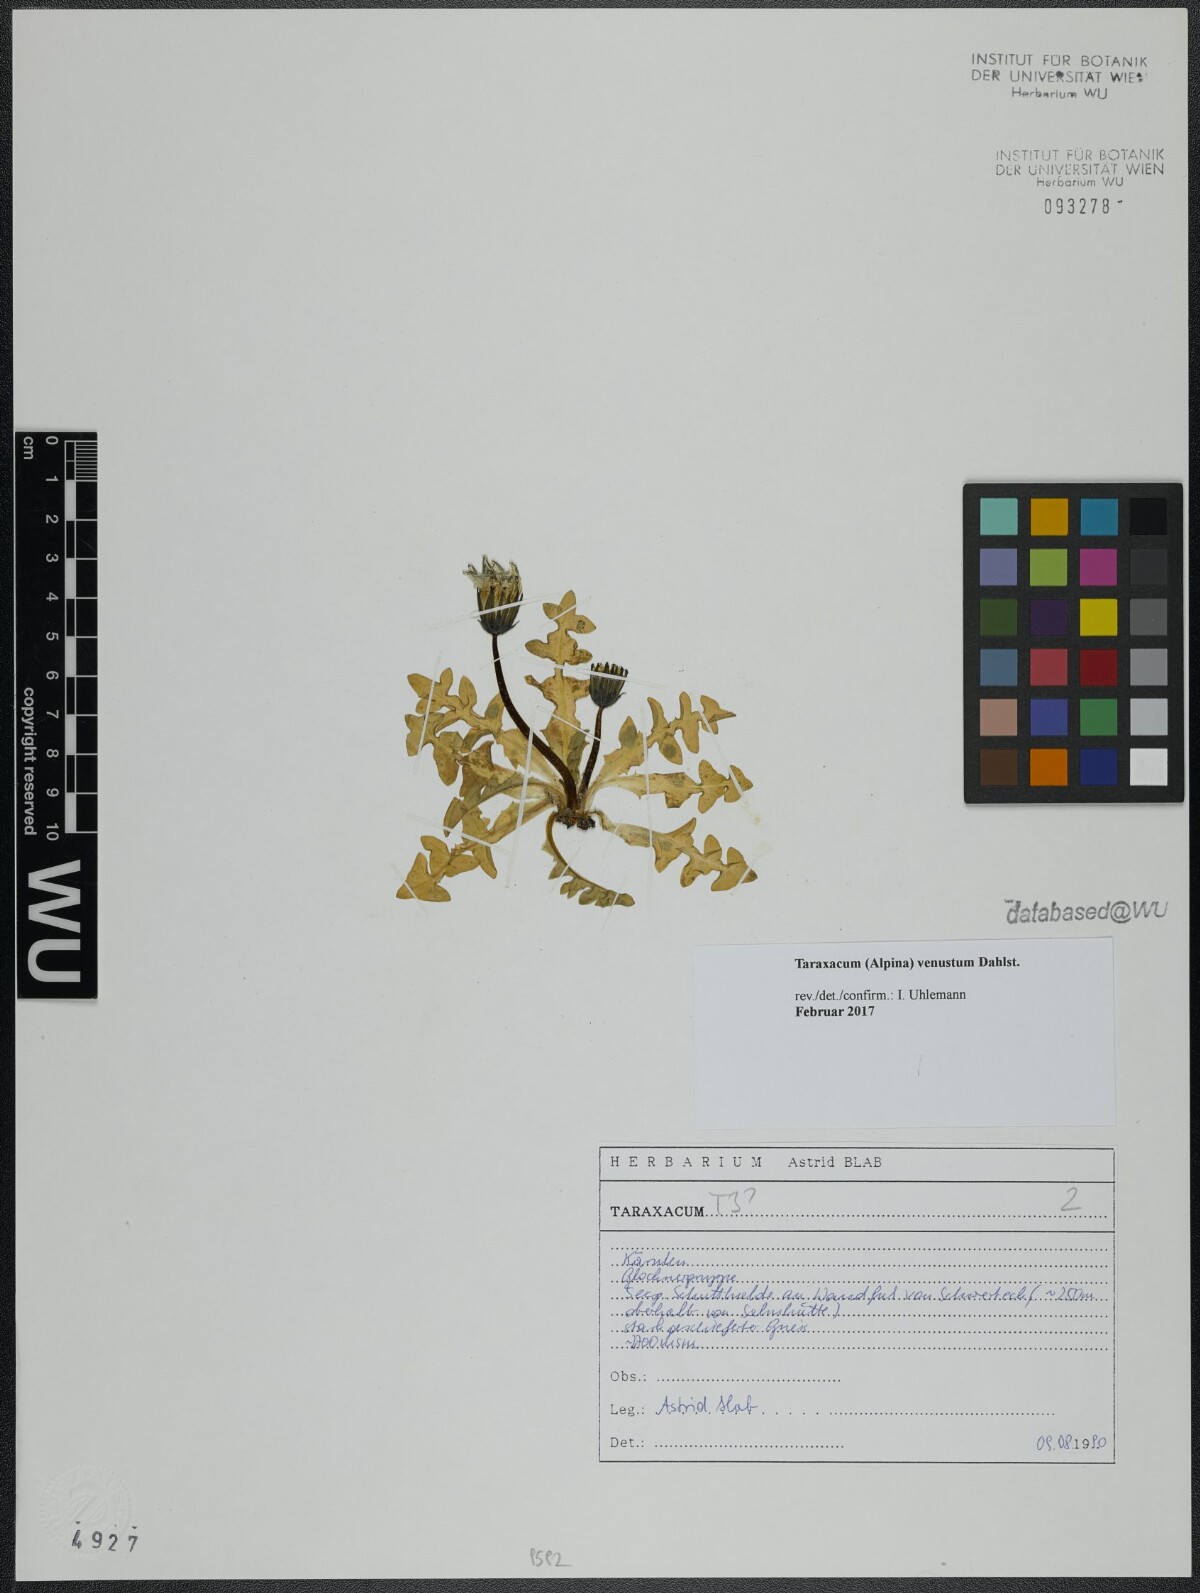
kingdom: Plantae
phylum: Tracheophyta
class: Magnoliopsida
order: Asterales
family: Asteraceae
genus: Taraxacum
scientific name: Taraxacum venustum
